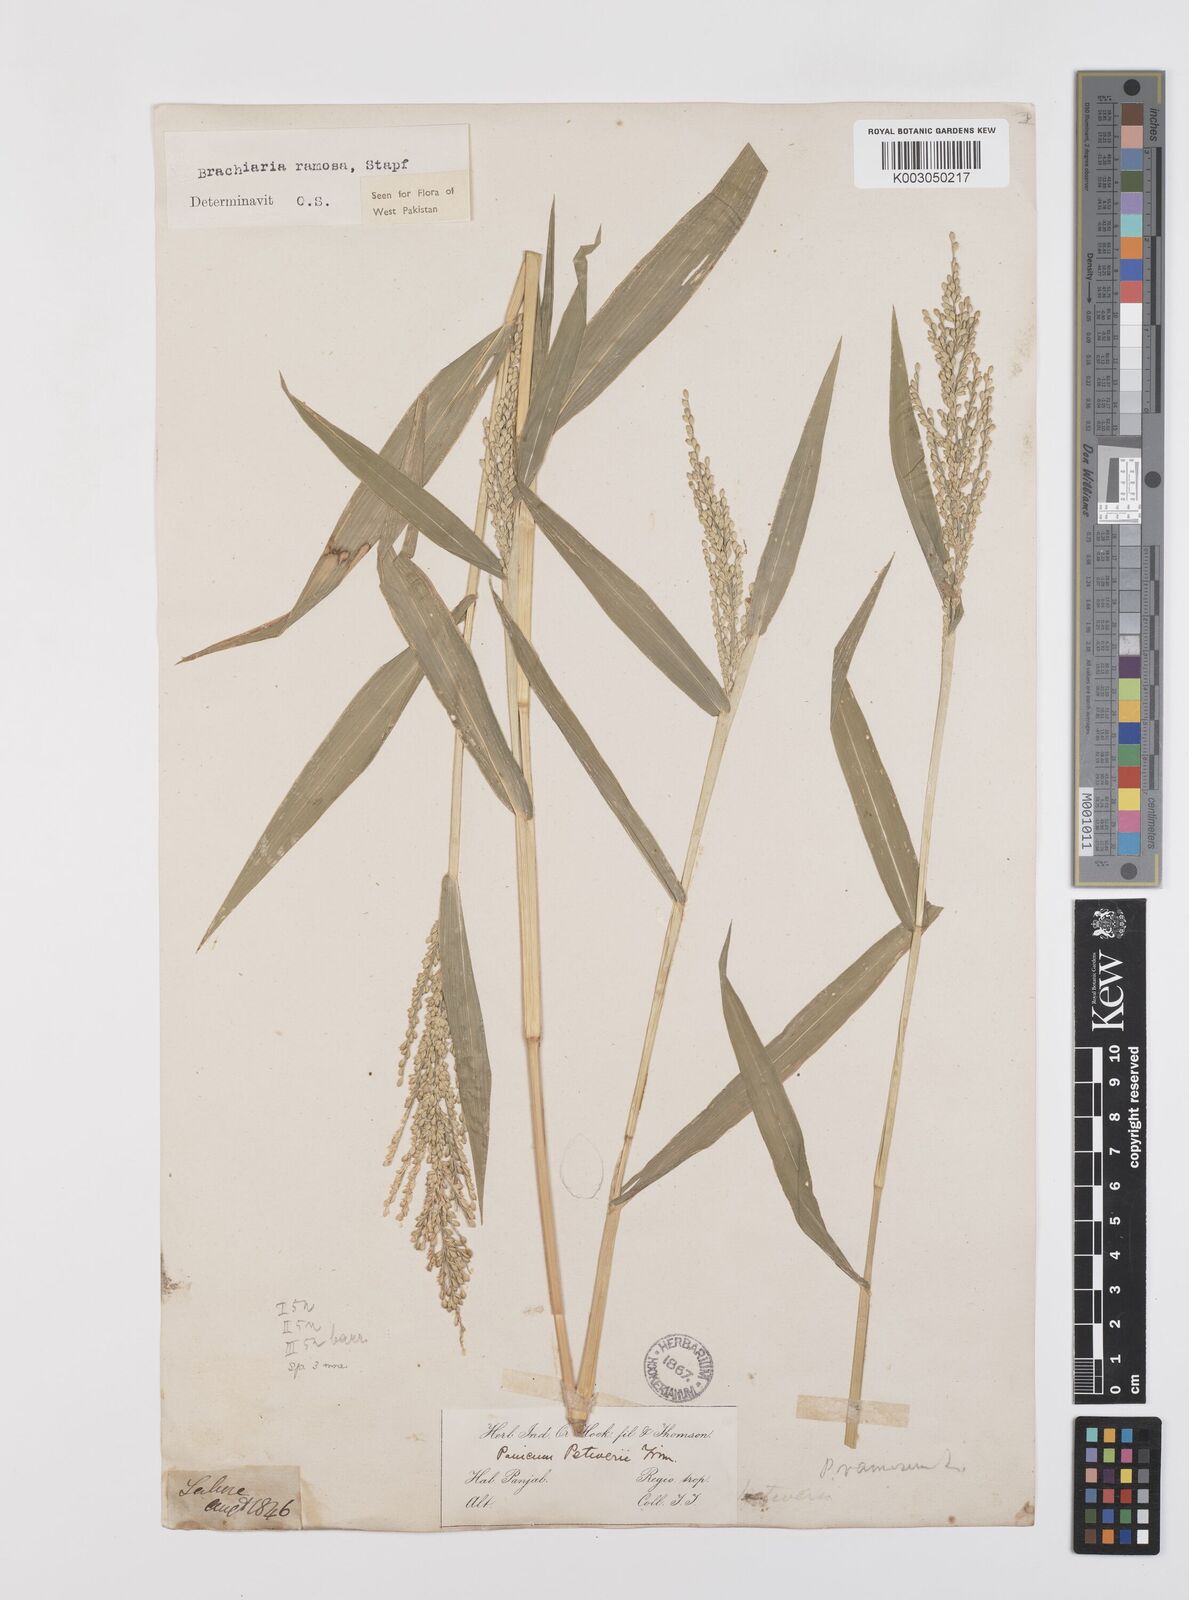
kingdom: Plantae
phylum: Tracheophyta
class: Liliopsida
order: Poales
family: Poaceae
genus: Urochloa
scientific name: Urochloa ramosa
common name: Browntop millet
